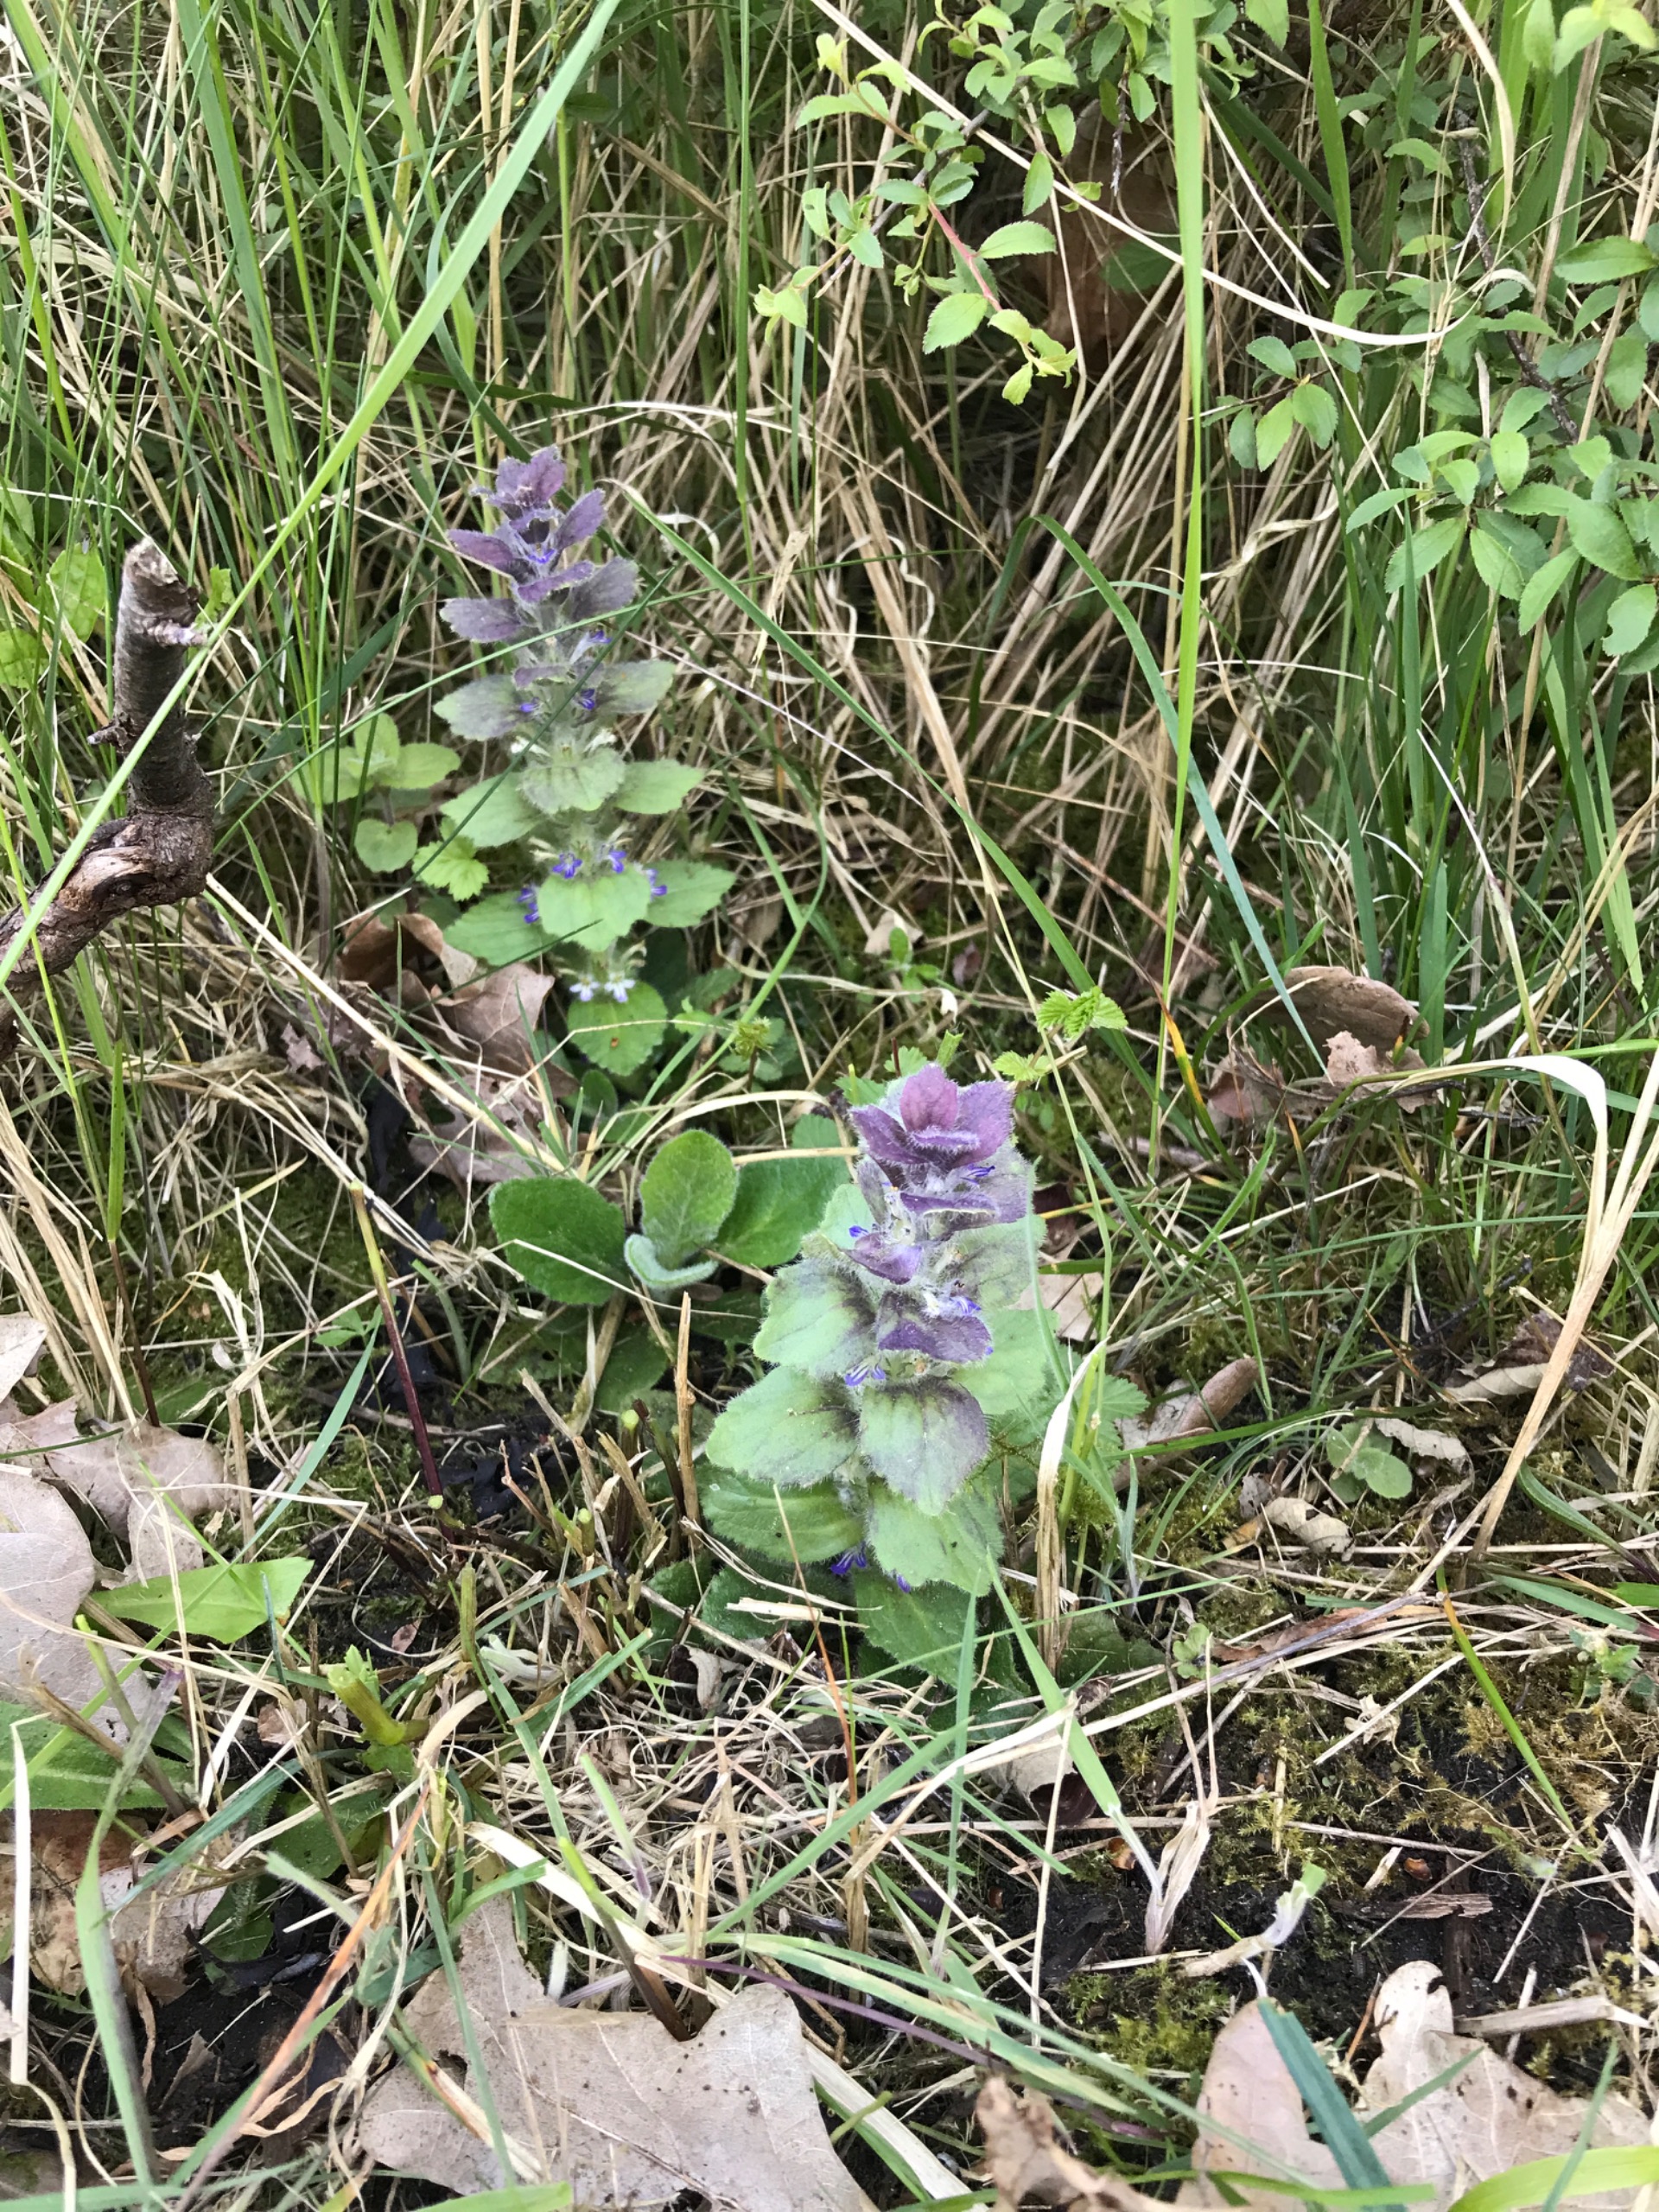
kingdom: Plantae
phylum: Tracheophyta
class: Magnoliopsida
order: Lamiales
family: Lamiaceae
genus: Ajuga
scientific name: Ajuga pyramidalis
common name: Pyramide-læbeløs
